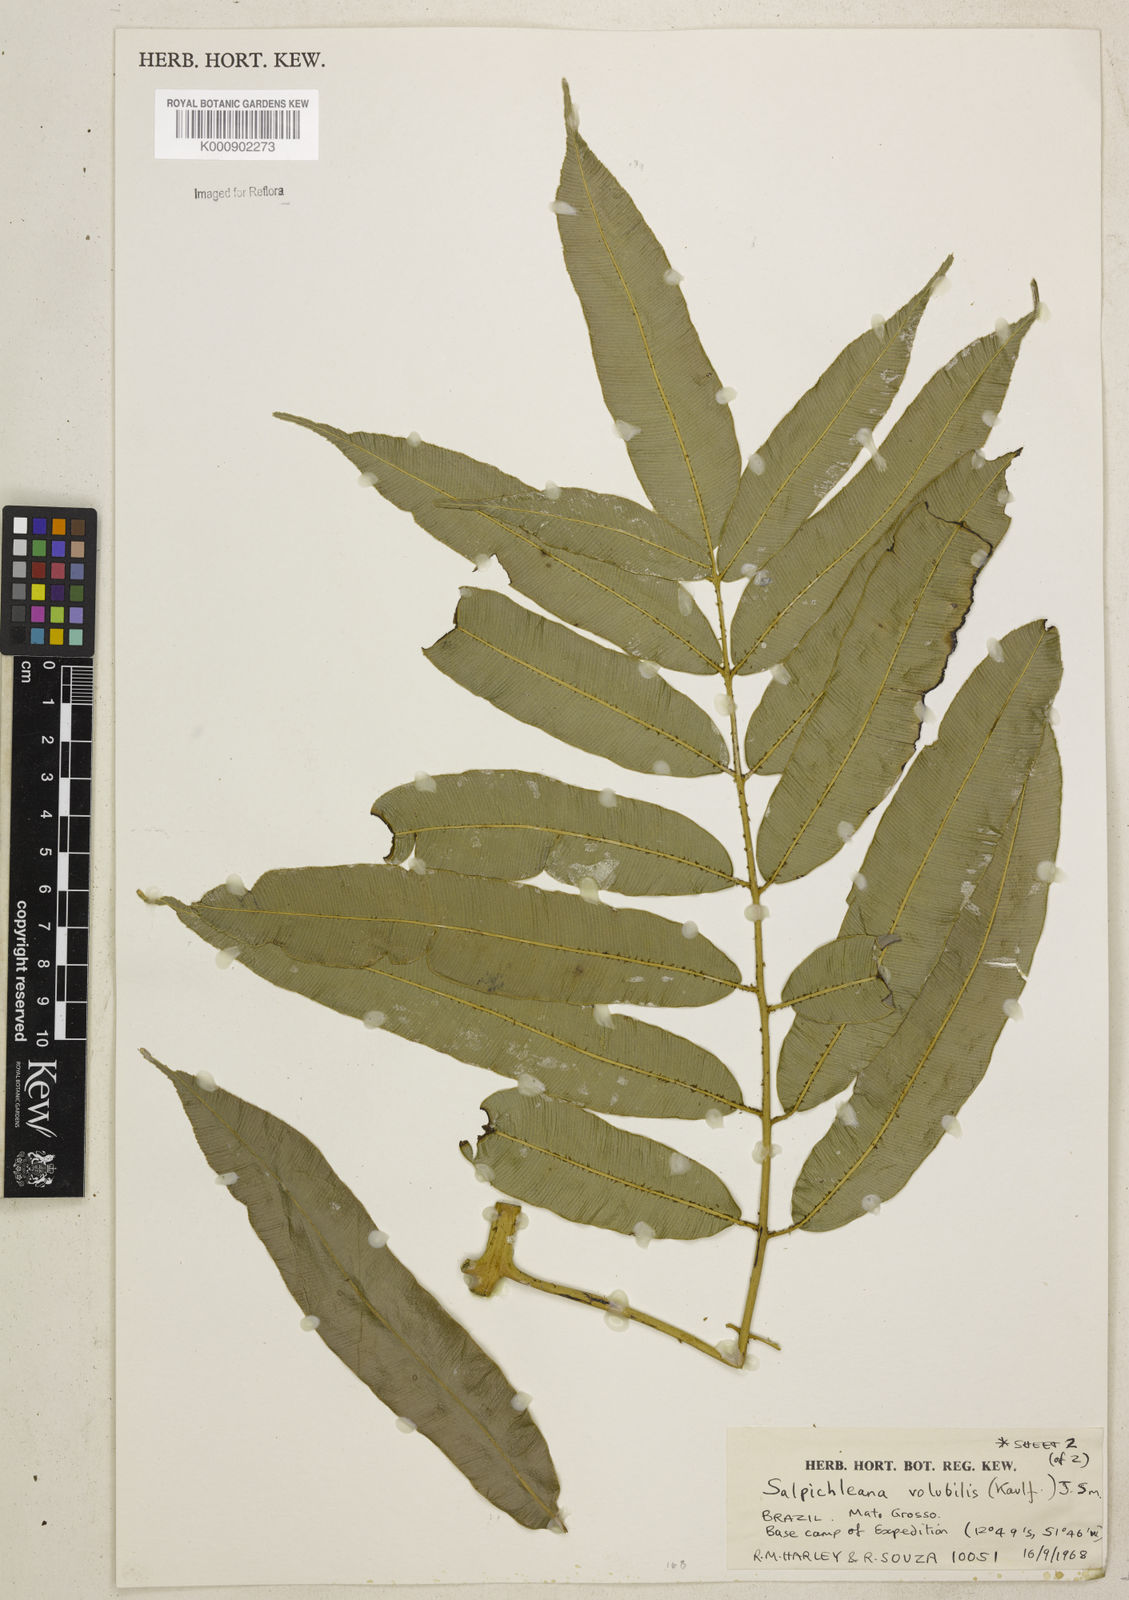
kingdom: Plantae
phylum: Tracheophyta
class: Polypodiopsida
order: Polypodiales
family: Blechnaceae
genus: Salpichlaena
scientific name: Salpichlaena volubilis
